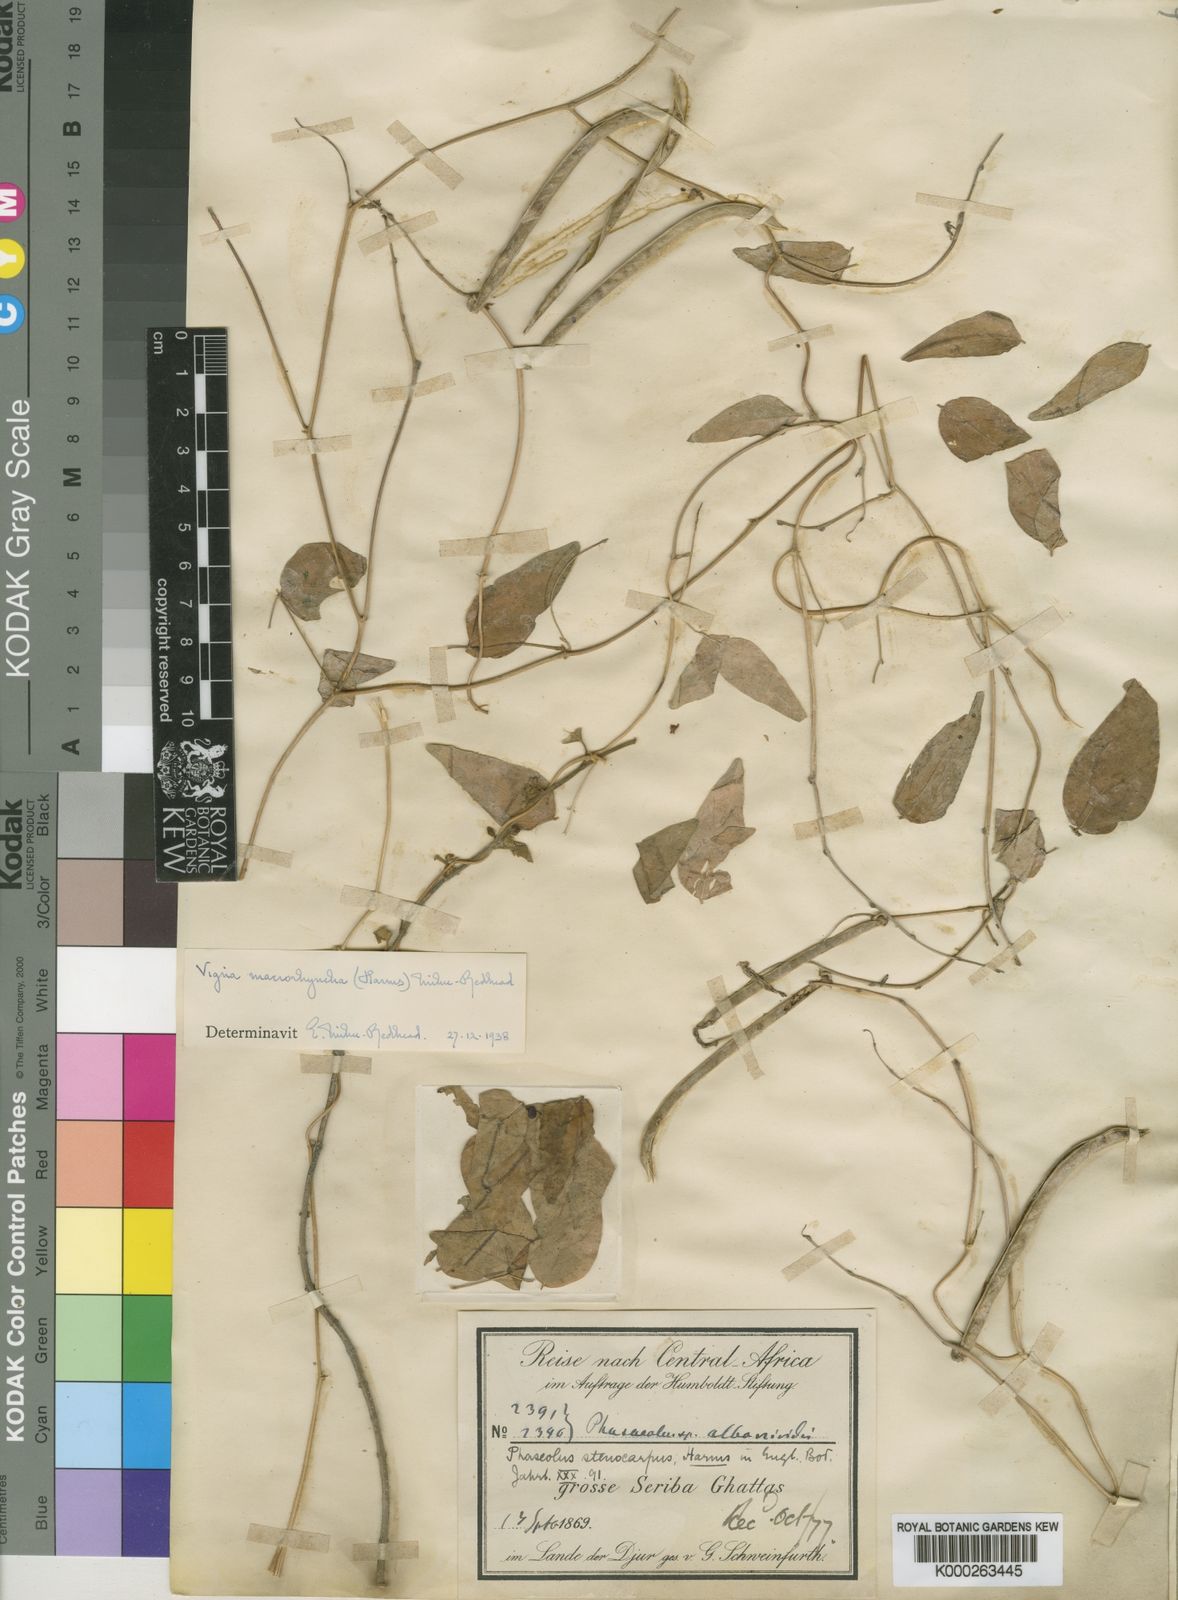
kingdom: Plantae
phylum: Tracheophyta
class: Magnoliopsida
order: Fabales
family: Fabaceae
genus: Wajira
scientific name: Wajira grahamiana
